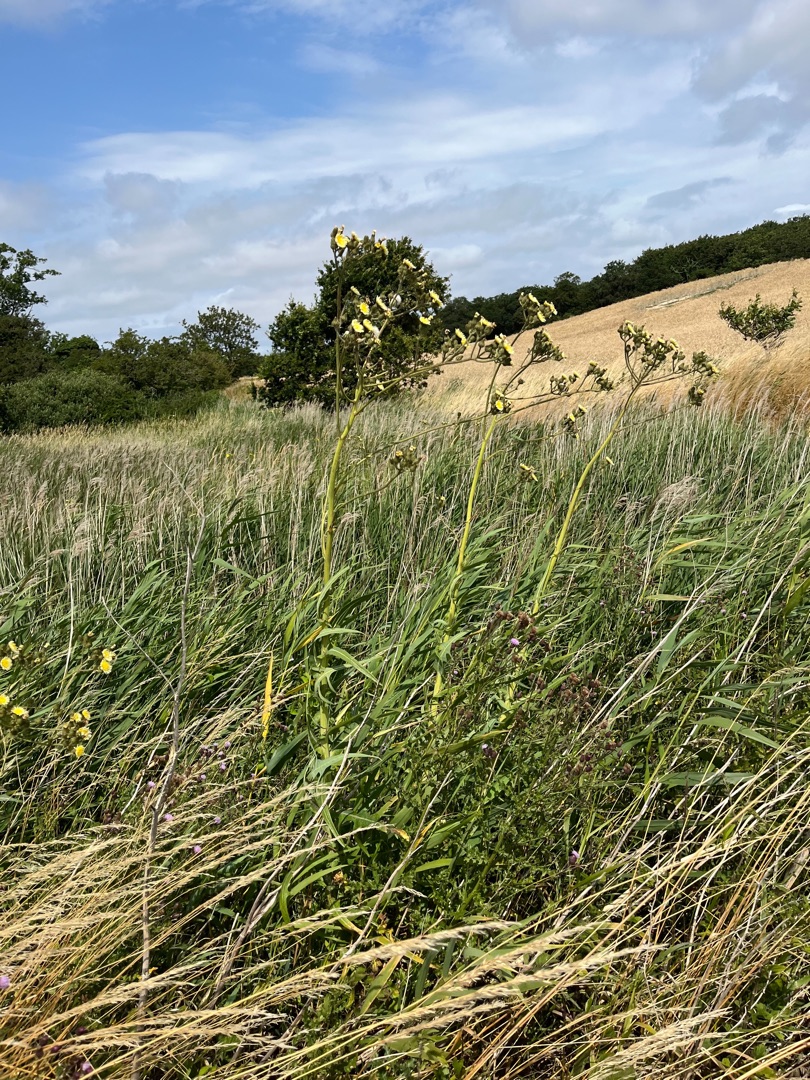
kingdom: Plantae
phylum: Tracheophyta
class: Magnoliopsida
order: Asterales
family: Asteraceae
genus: Sonchus
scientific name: Sonchus palustris
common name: Kær-svinemælk
